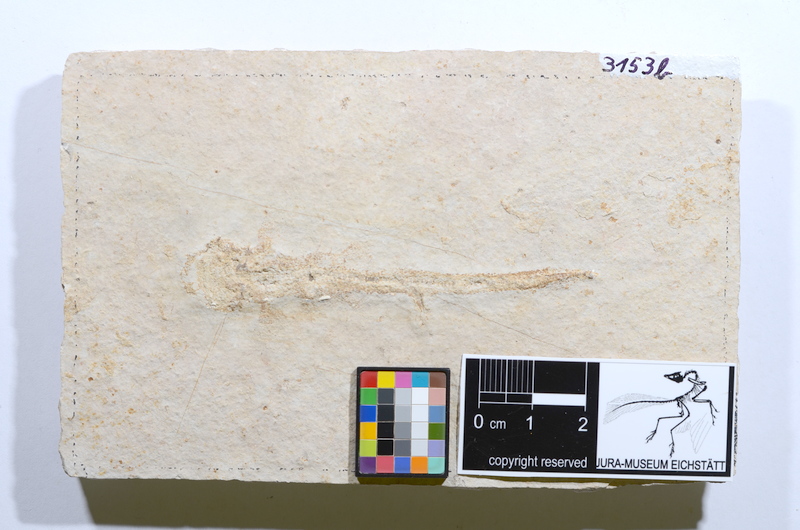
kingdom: Animalia
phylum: Chordata
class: Elasmobranchii
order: Heterodontiformes
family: Heterodontidae
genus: Heterodontus
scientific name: Heterodontus
